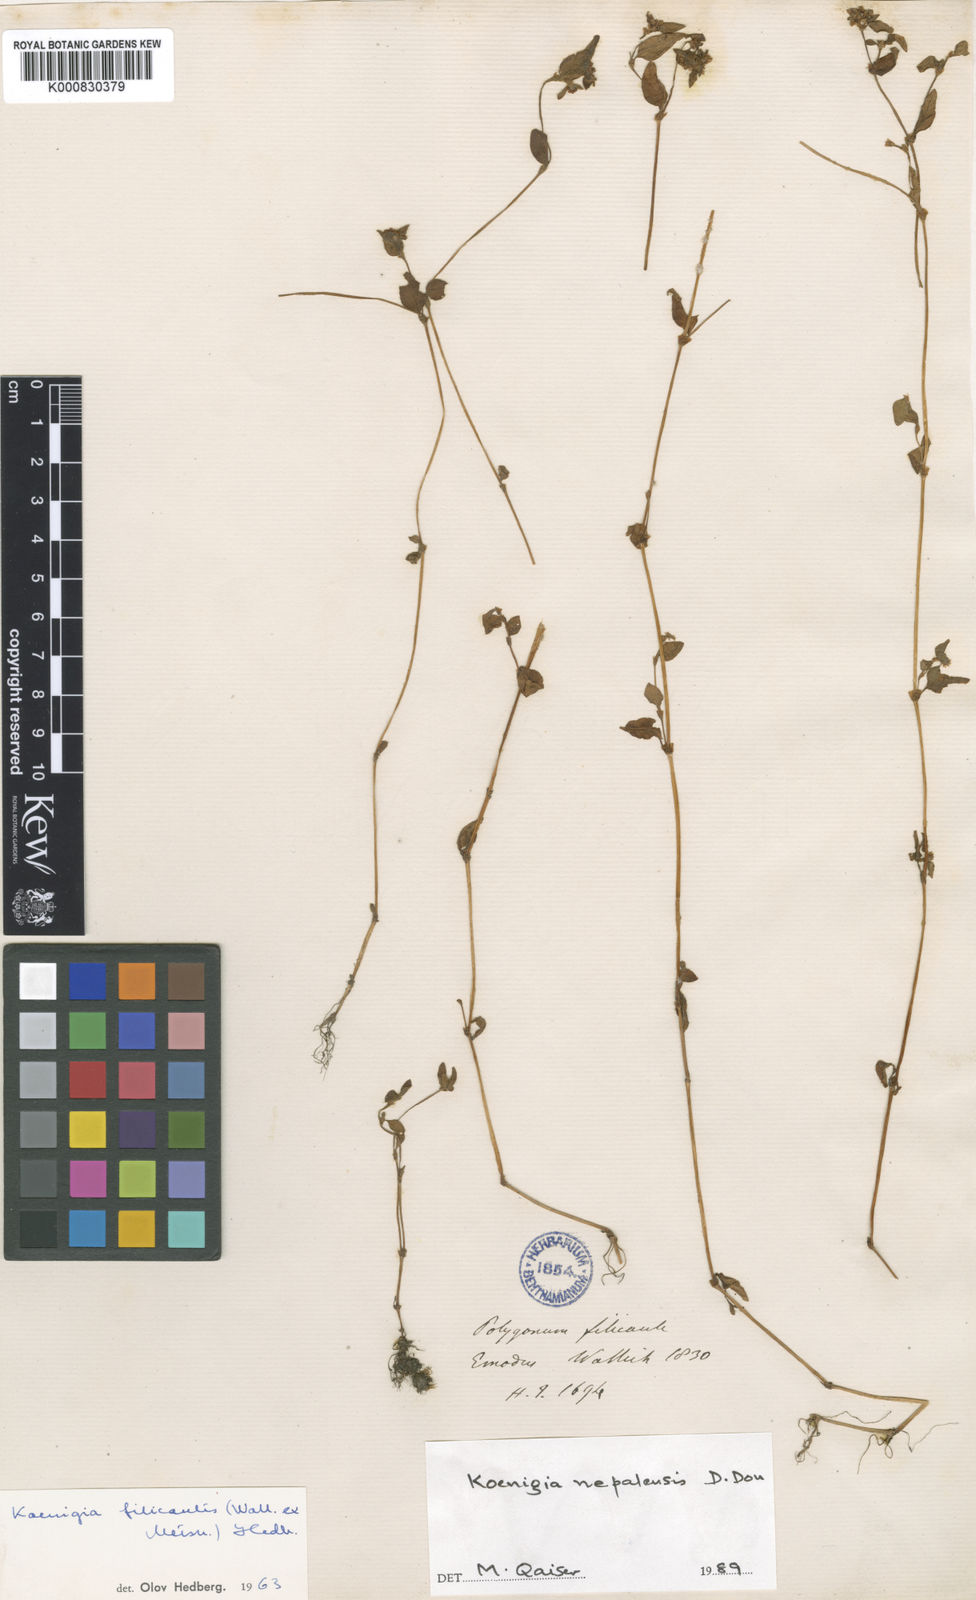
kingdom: Plantae
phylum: Tracheophyta
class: Magnoliopsida
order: Caryophyllales
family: Polygonaceae
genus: Koenigia
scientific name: Koenigia filicaulis
